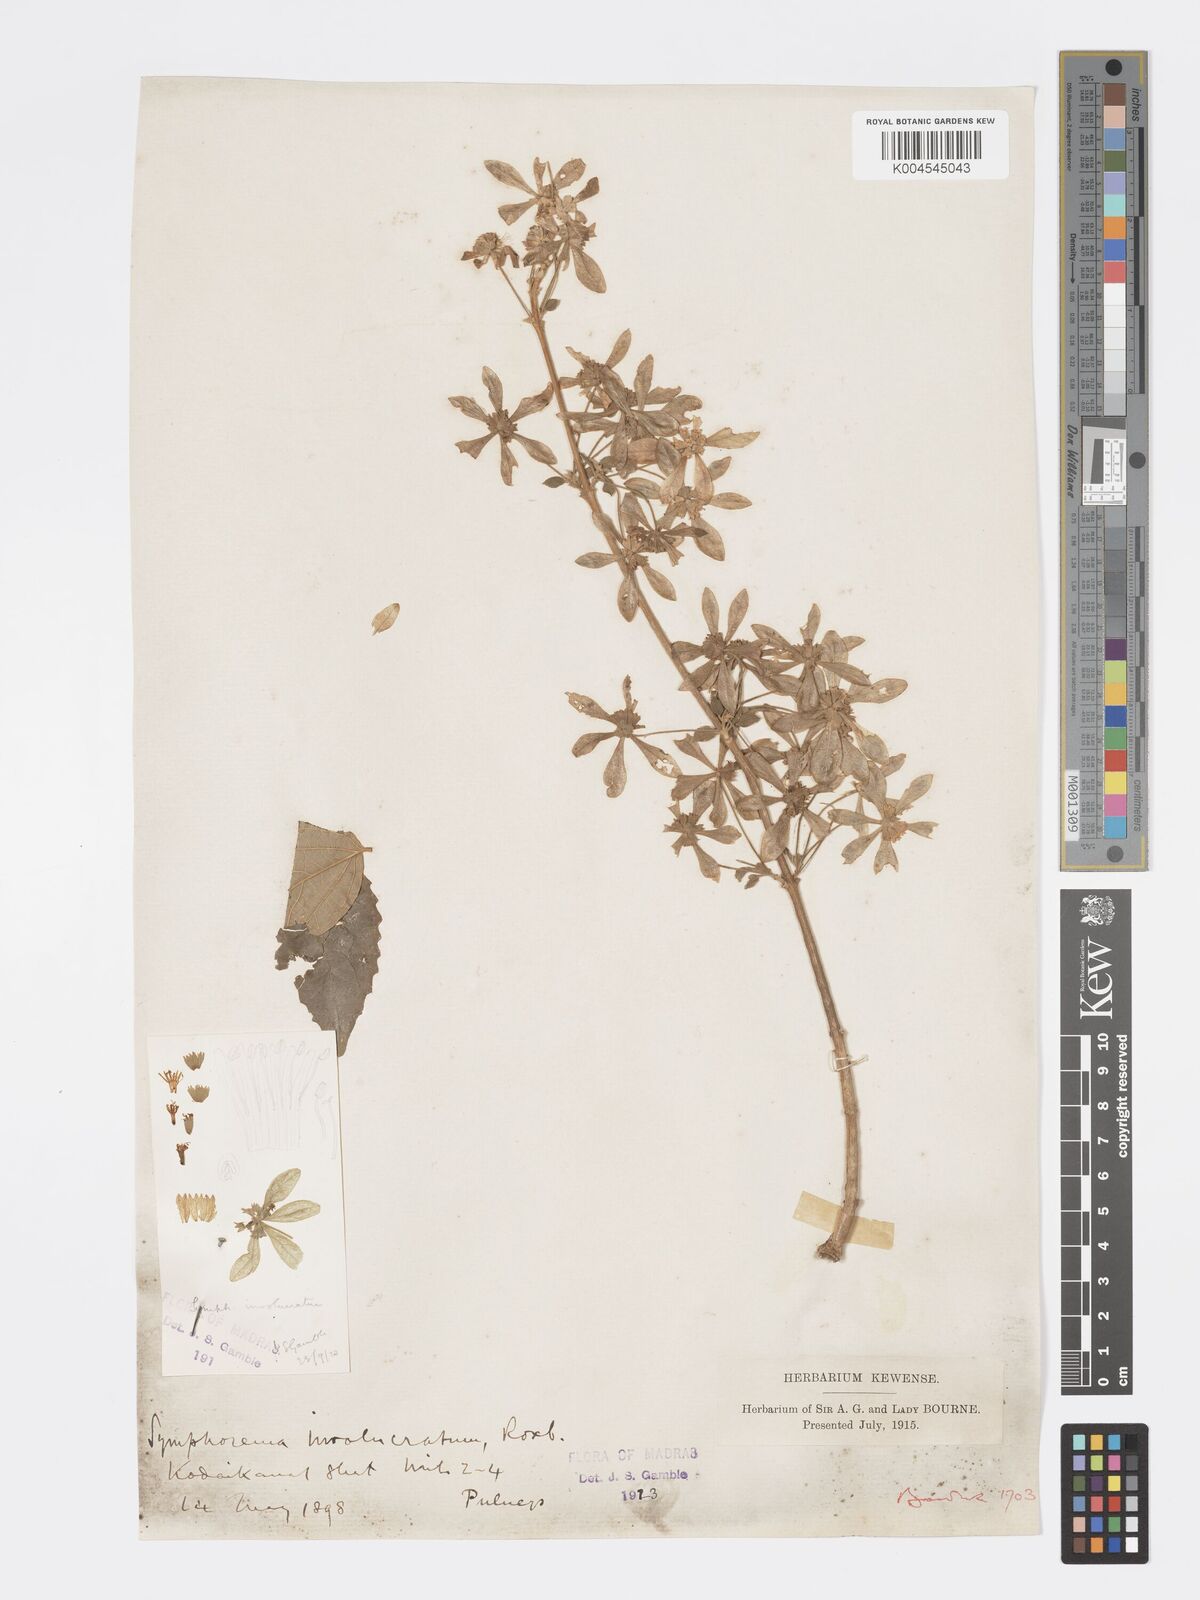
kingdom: Plantae
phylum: Tracheophyta
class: Magnoliopsida
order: Lamiales
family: Lamiaceae
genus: Symphorema
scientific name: Symphorema involucratum
